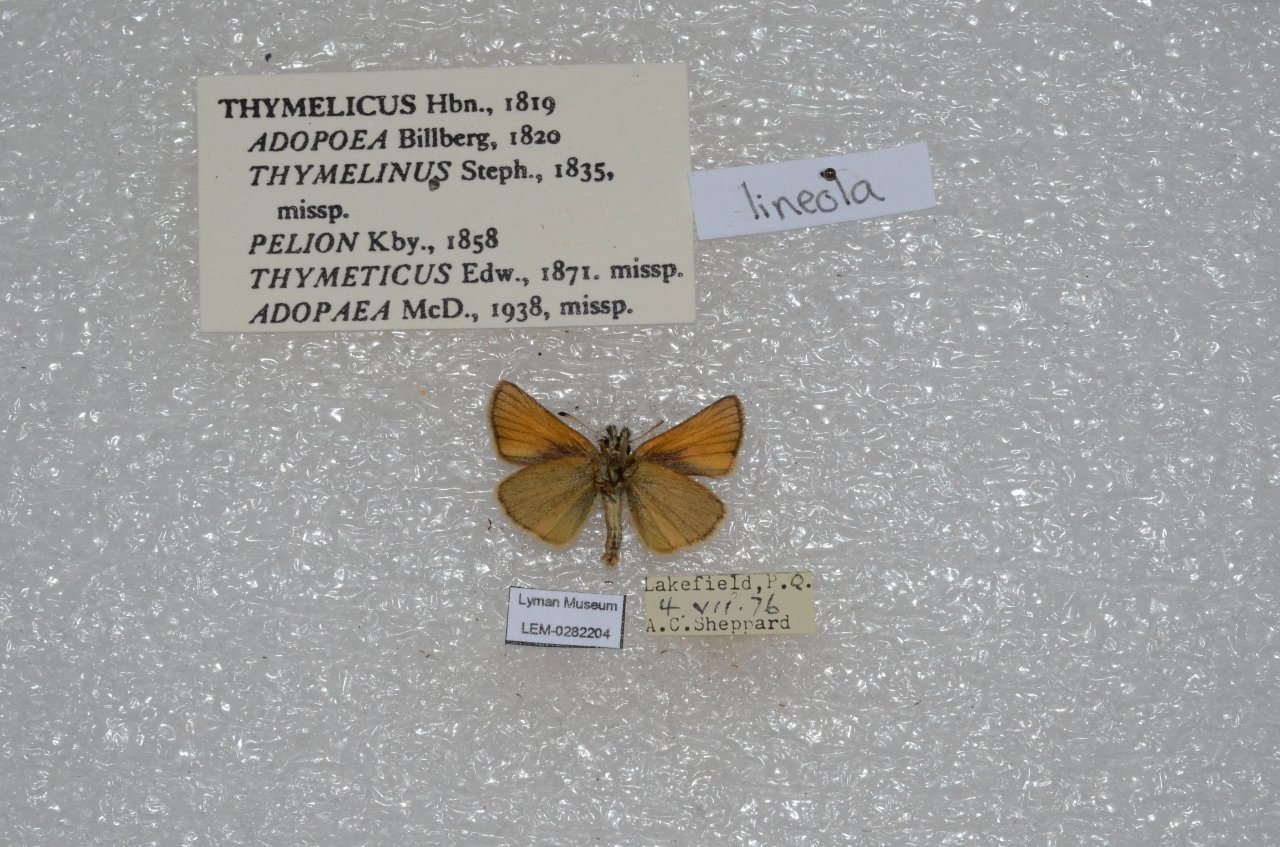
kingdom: Animalia
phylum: Arthropoda
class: Insecta
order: Lepidoptera
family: Hesperiidae
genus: Thymelicus
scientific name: Thymelicus lineola
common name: European Skipper
